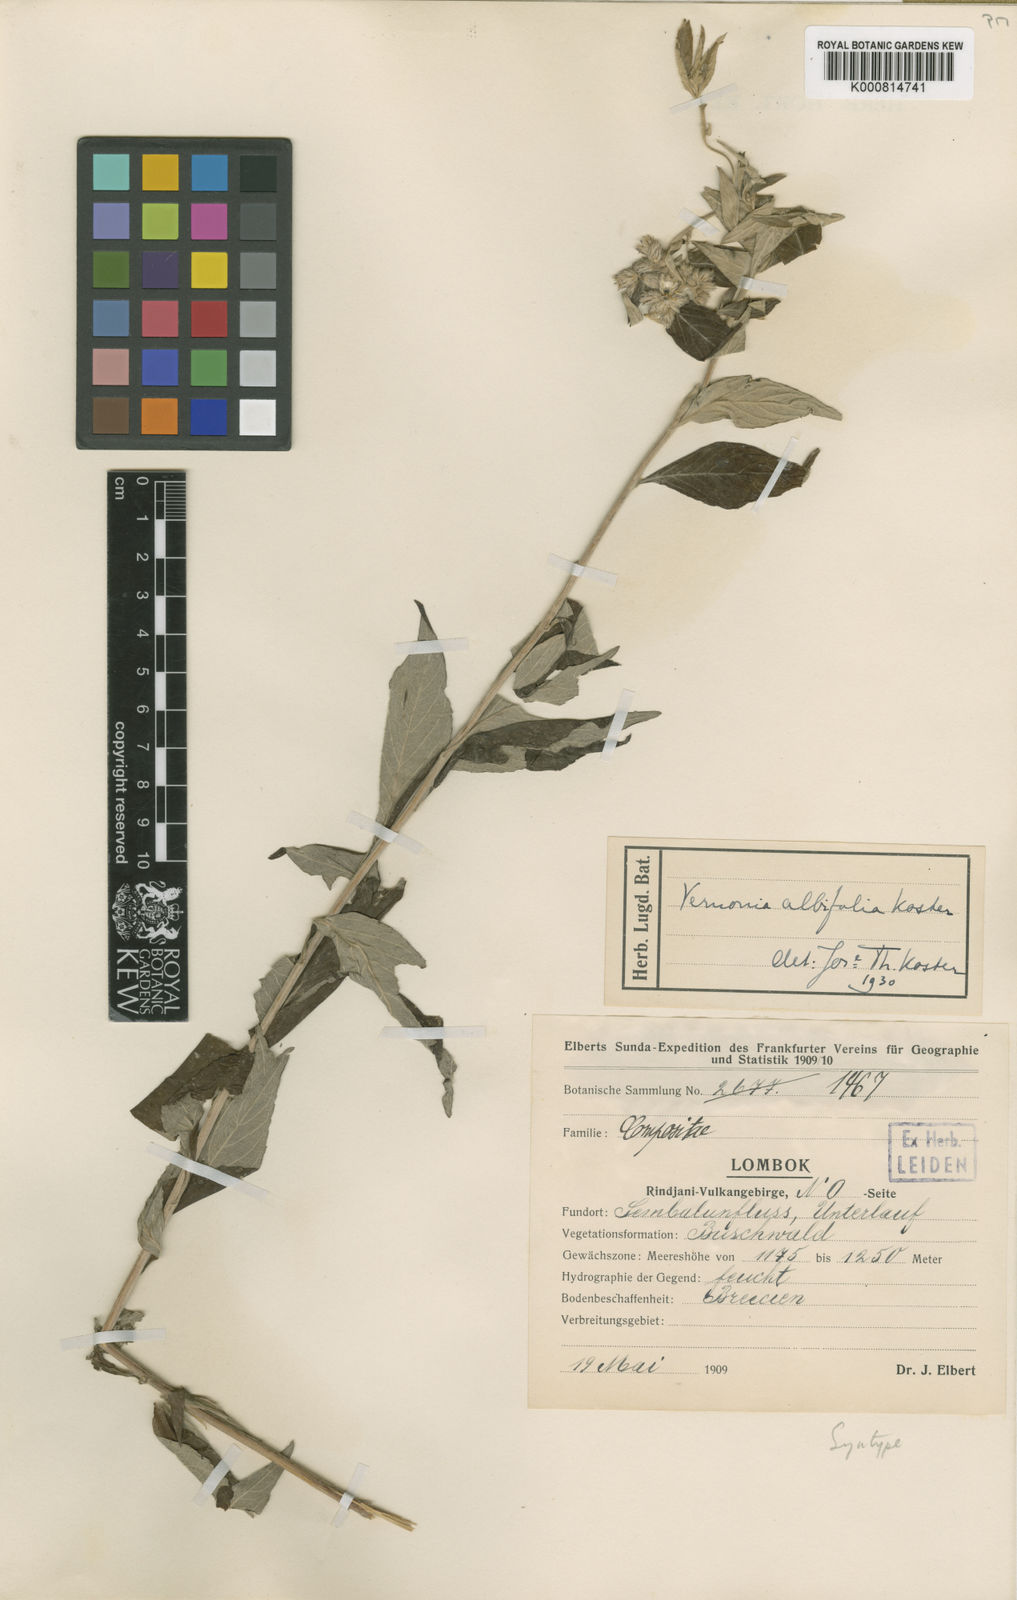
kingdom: Plantae
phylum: Tracheophyta
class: Magnoliopsida
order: Asterales
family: Asteraceae
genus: Vernonia
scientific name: Vernonia albifolia
